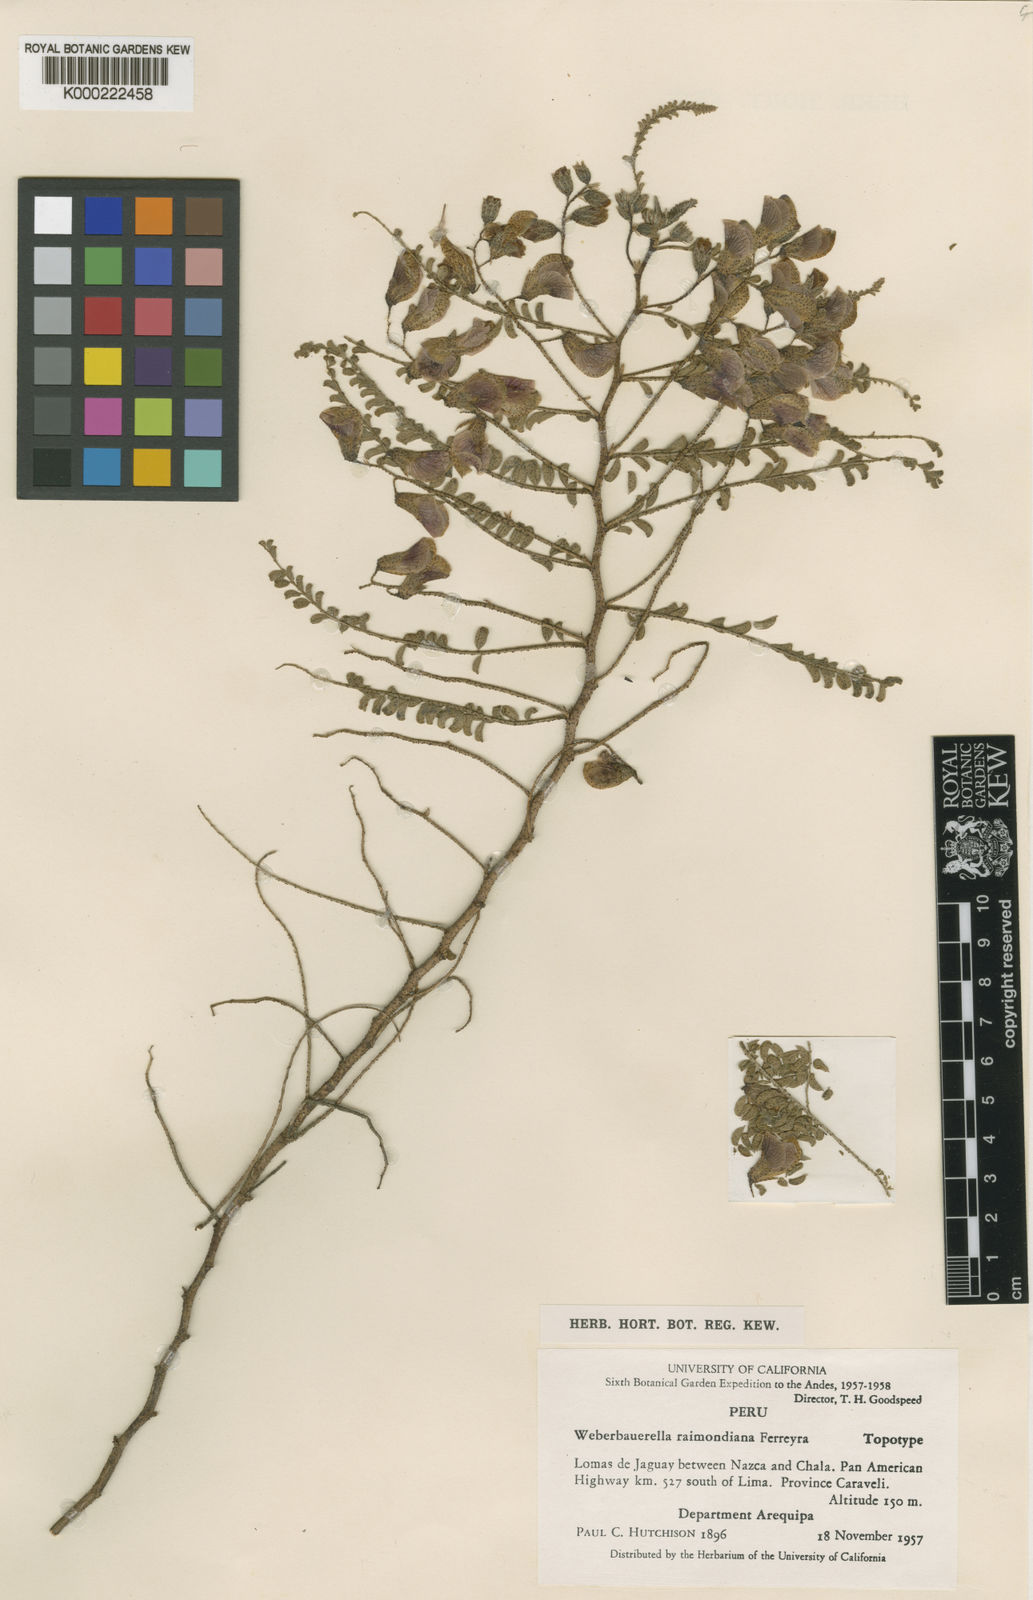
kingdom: Plantae
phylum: Tracheophyta
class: Magnoliopsida
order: Fabales
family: Fabaceae
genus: Weberbauerella
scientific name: Weberbauerella raimondiana
